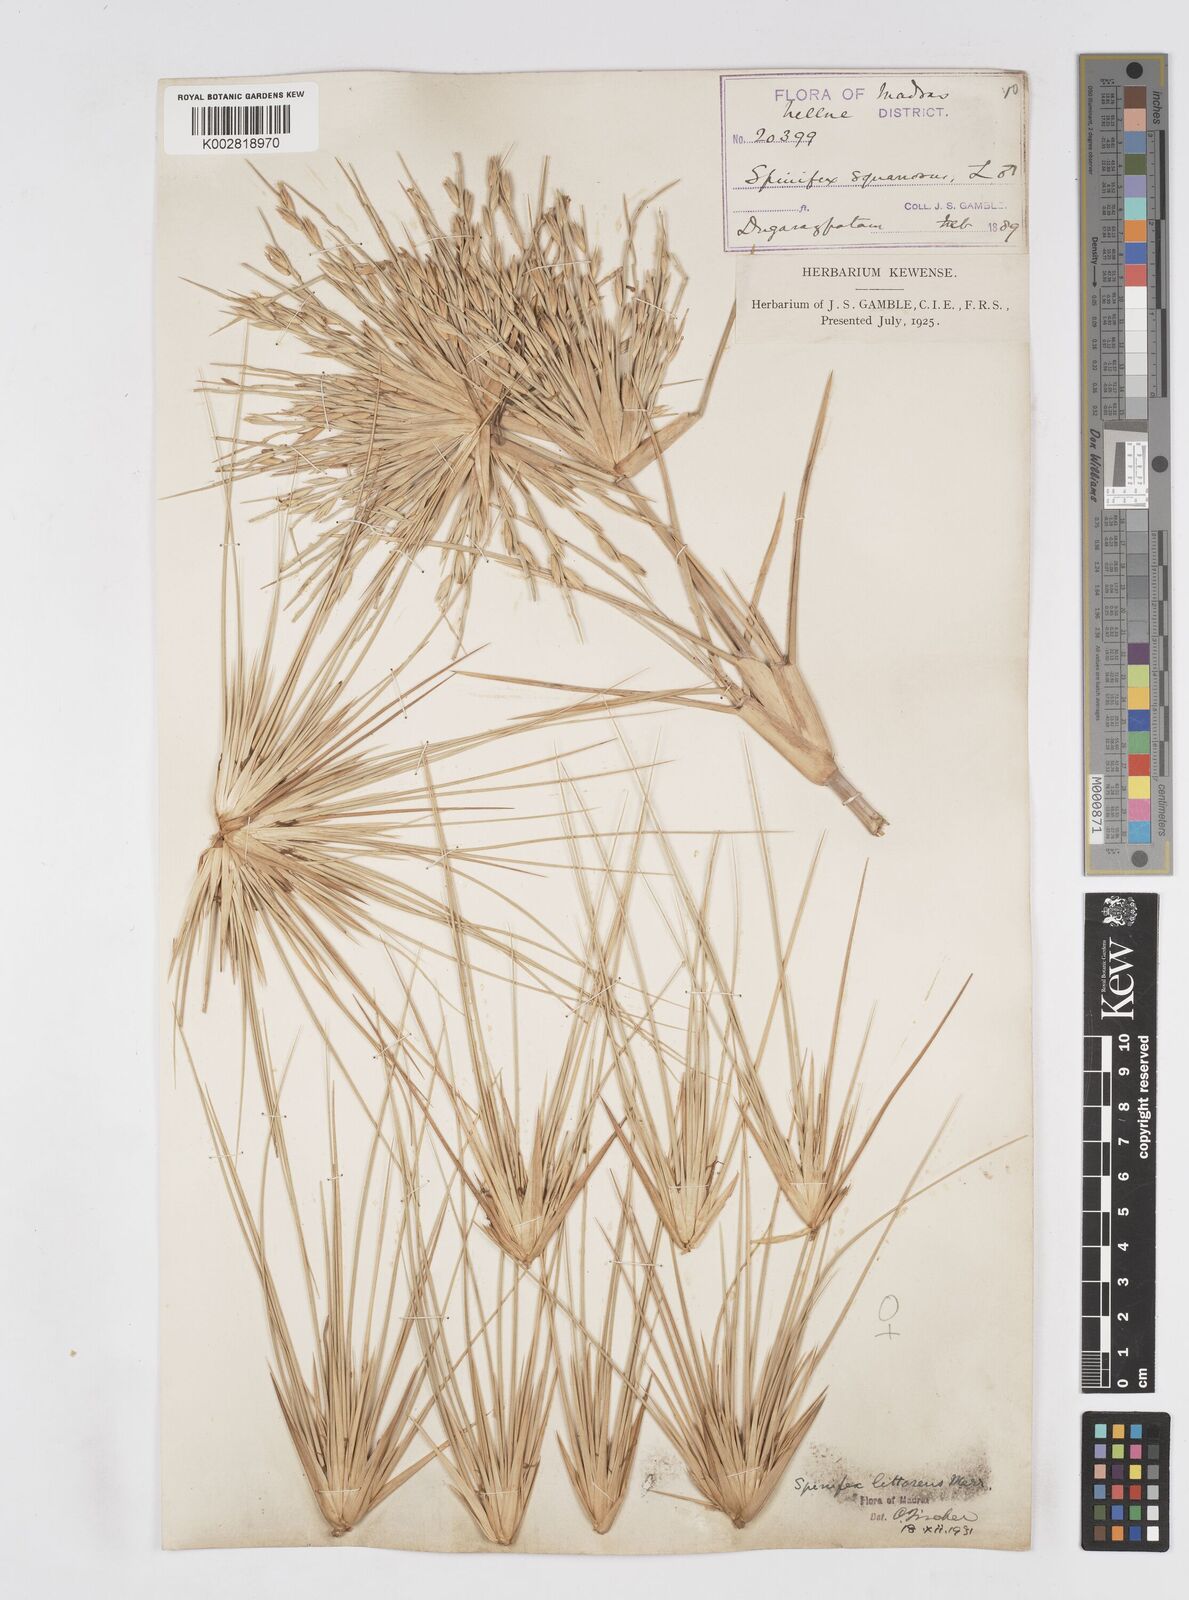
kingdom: Plantae
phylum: Tracheophyta
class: Liliopsida
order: Poales
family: Poaceae
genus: Spinifex
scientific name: Spinifex littoreus
